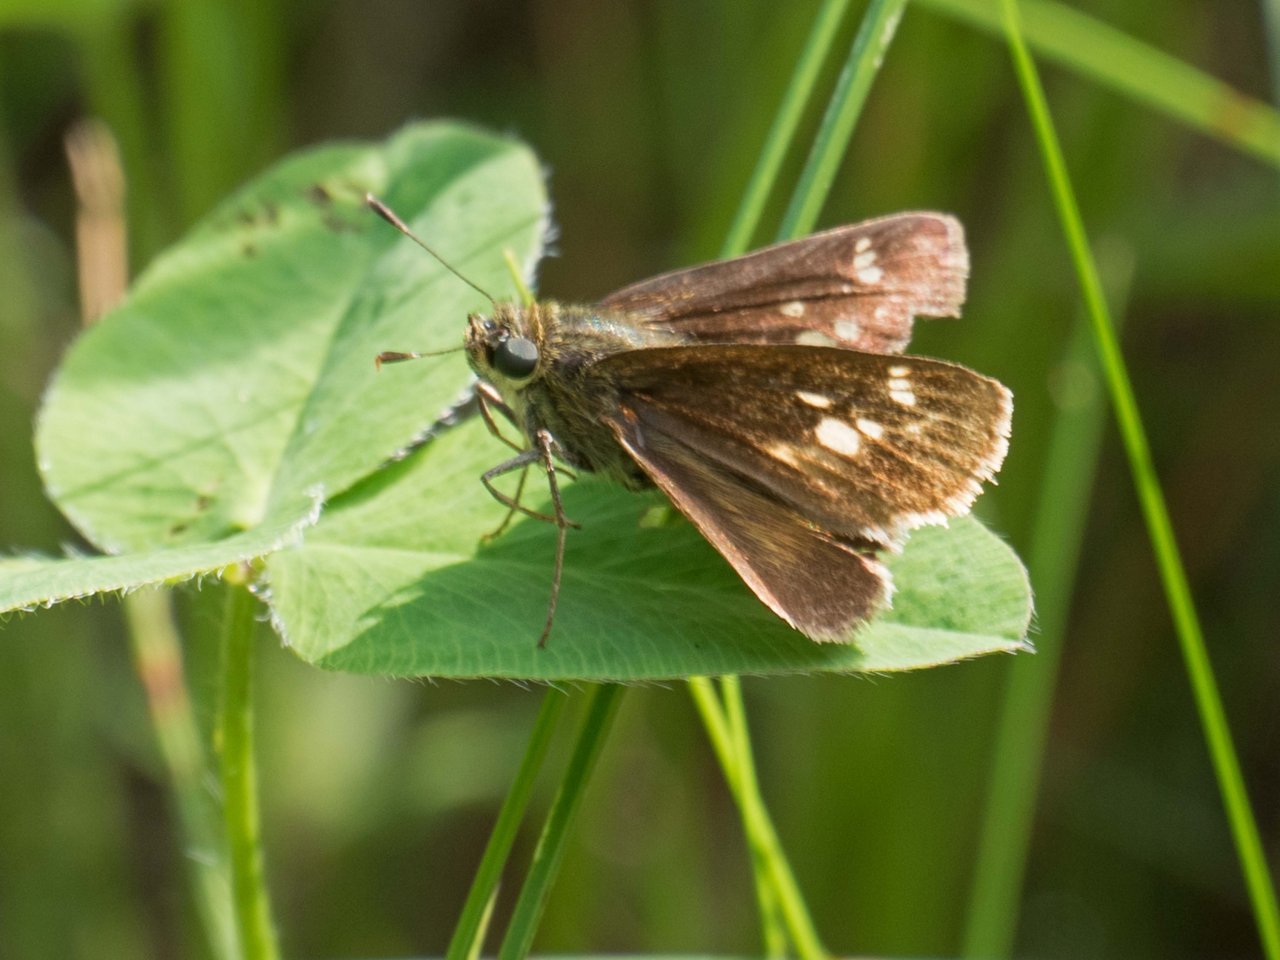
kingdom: Animalia
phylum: Arthropoda
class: Insecta
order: Lepidoptera
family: Hesperiidae
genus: Vernia
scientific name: Vernia verna
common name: Little Glassywing
